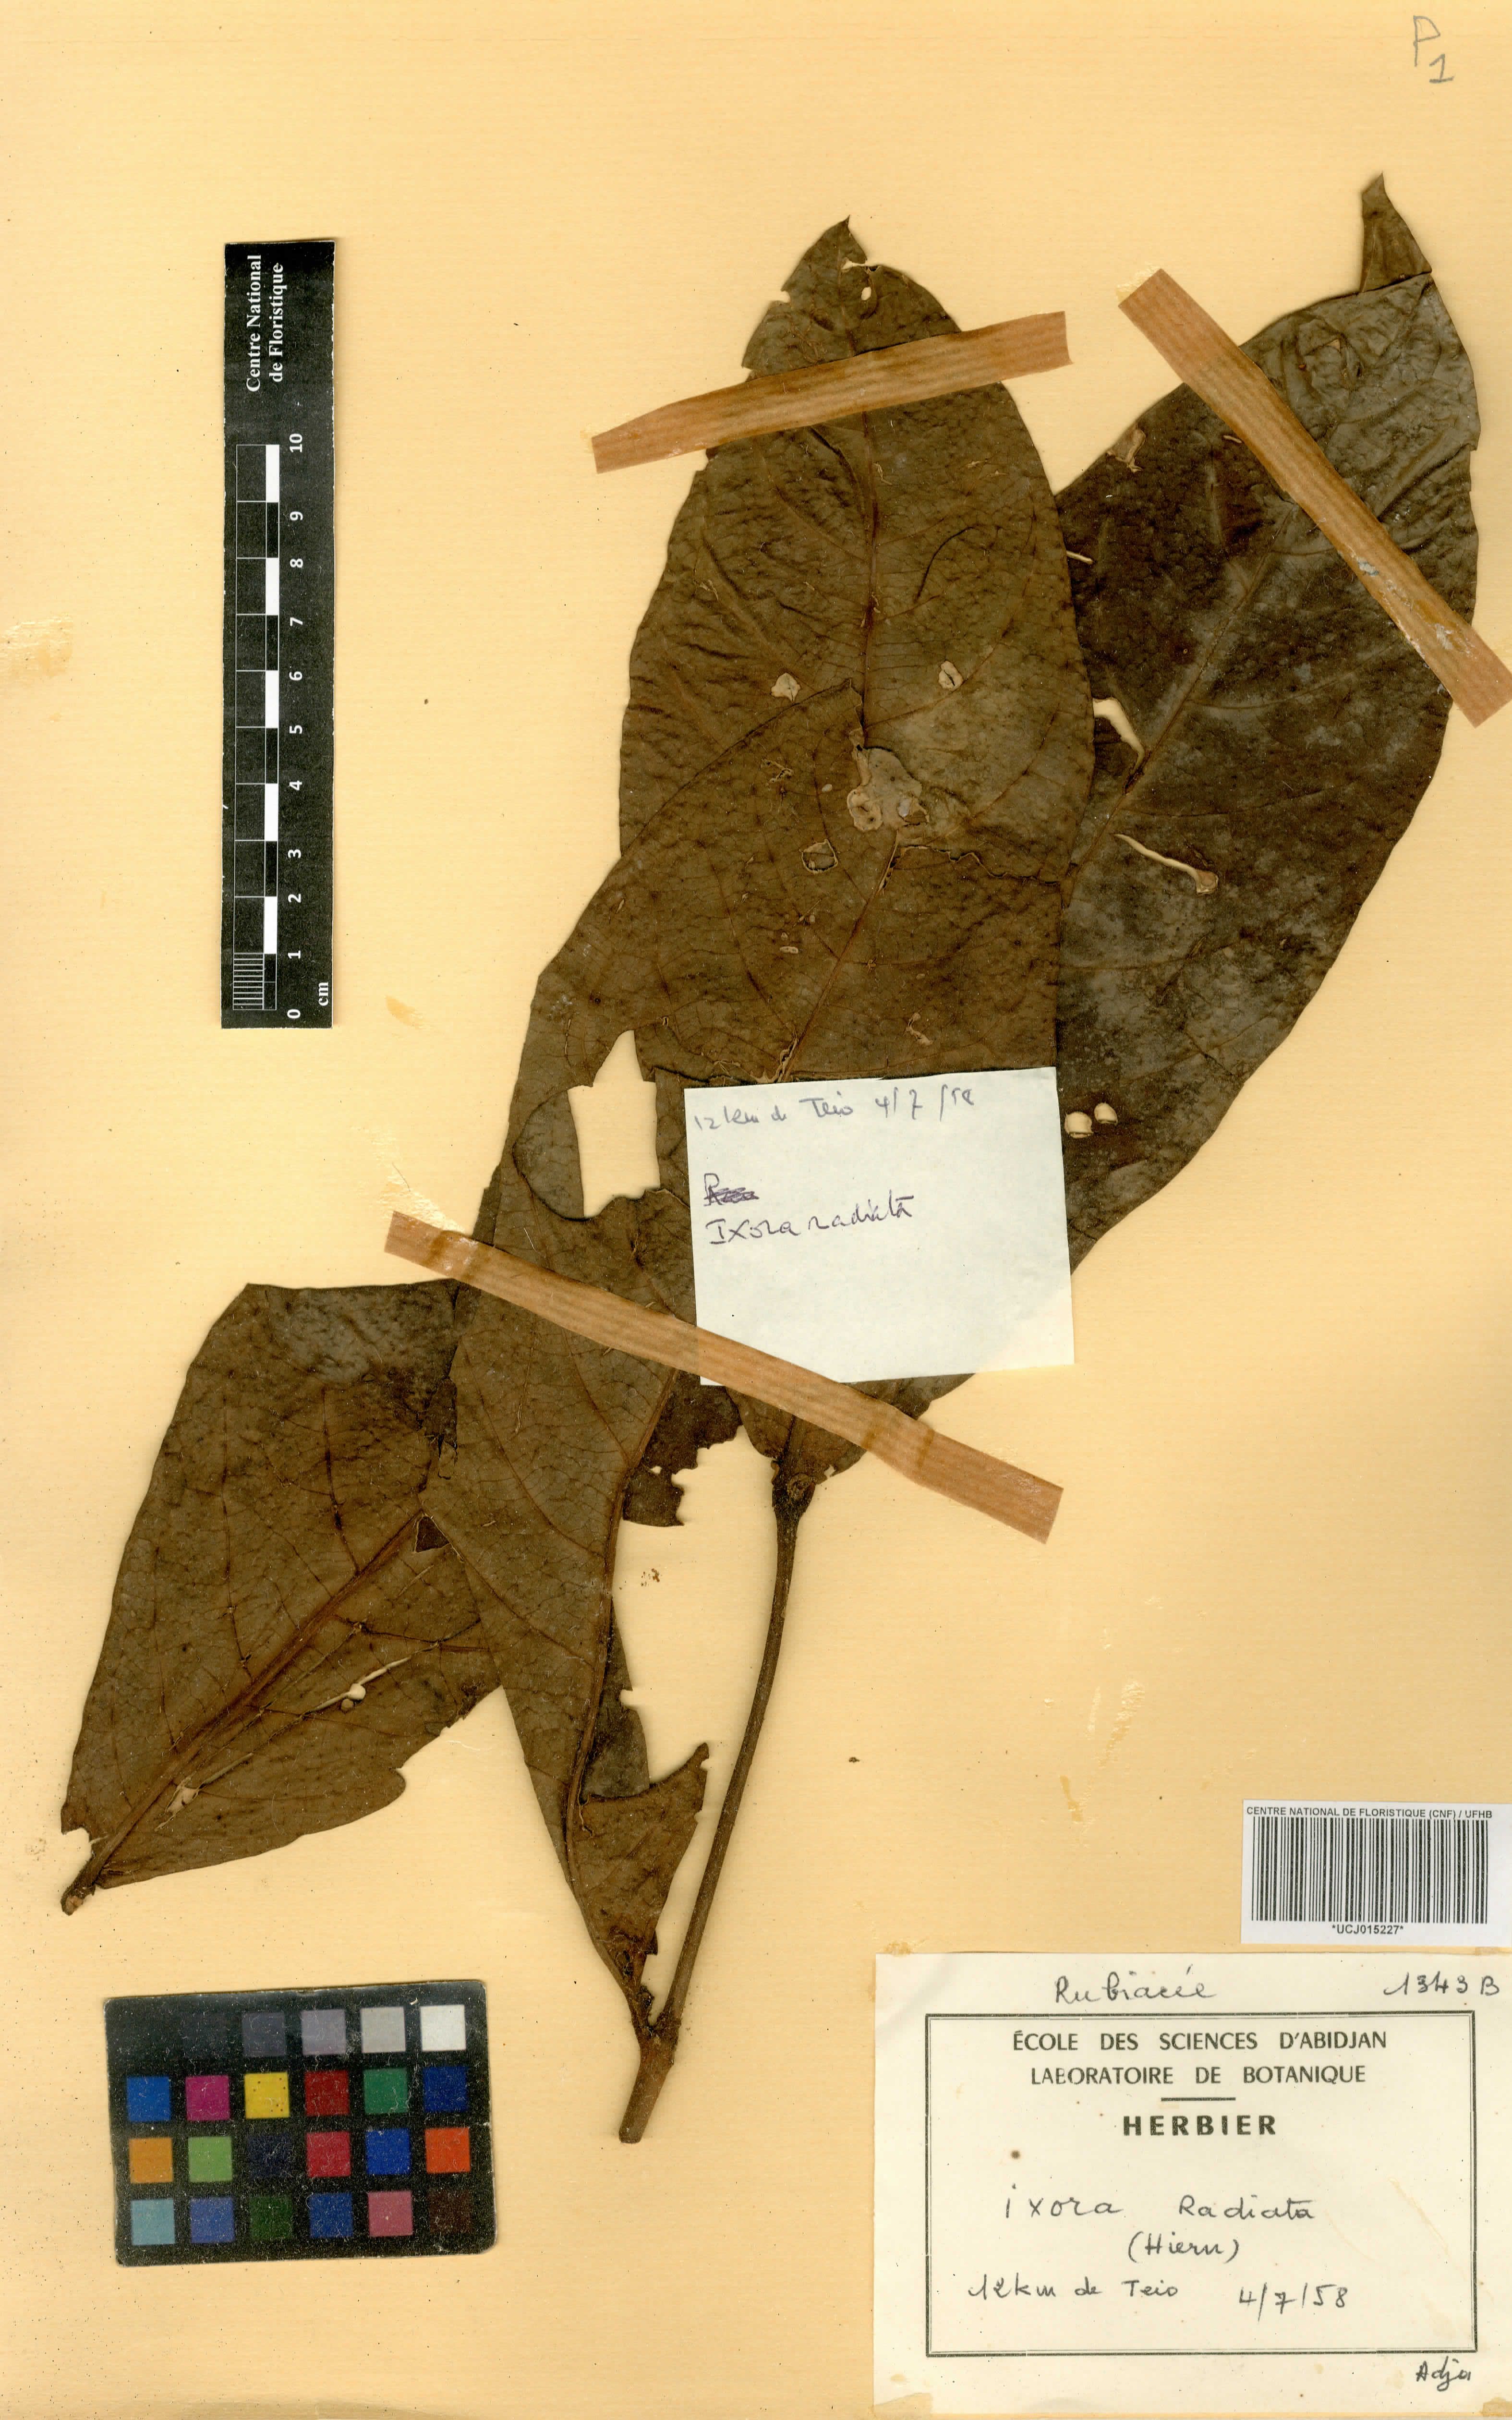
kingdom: Plantae
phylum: Tracheophyta
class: Magnoliopsida
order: Gentianales
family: Rubiaceae
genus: Ixora
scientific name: Ixora brachypoda
